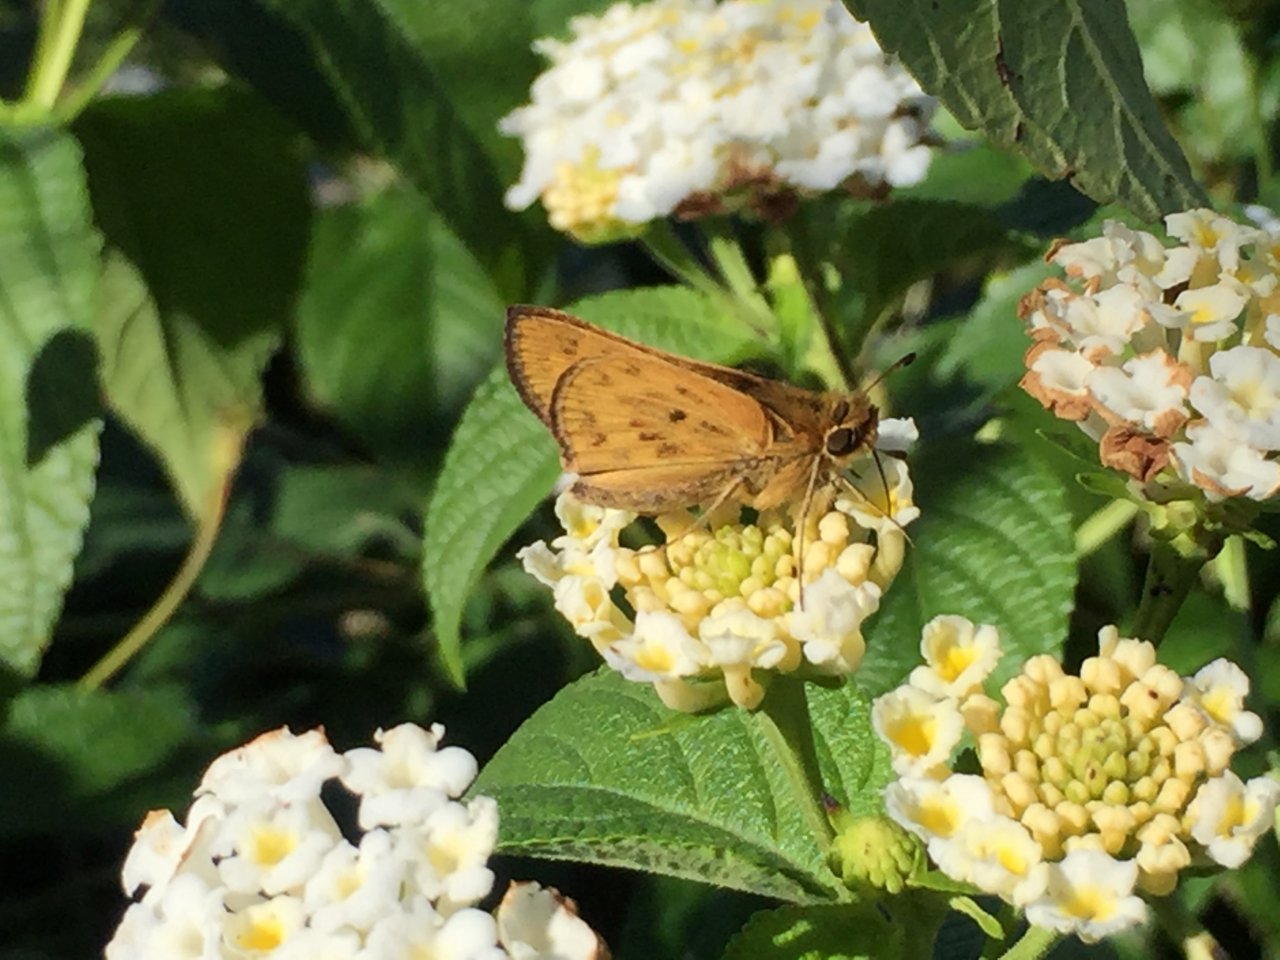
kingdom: Animalia
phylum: Arthropoda
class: Insecta
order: Lepidoptera
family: Hesperiidae
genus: Hylephila
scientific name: Hylephila phyleus
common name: Fiery Skipper
